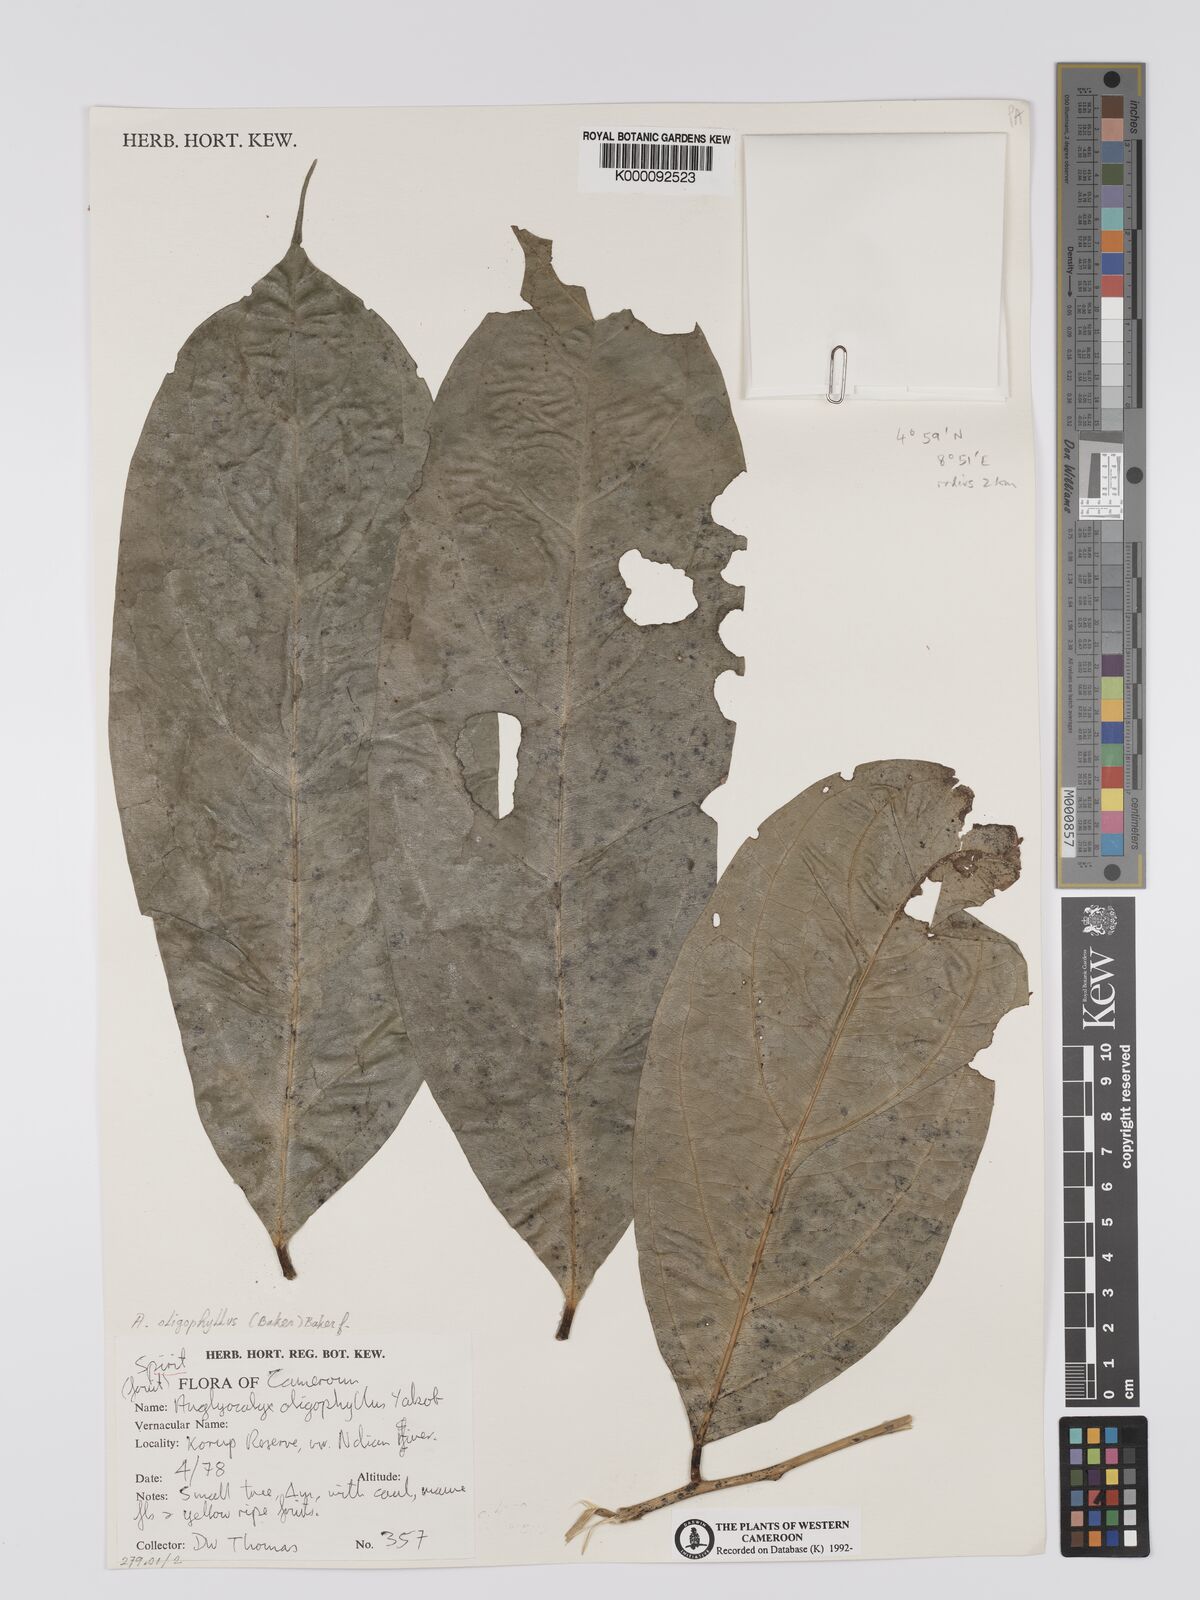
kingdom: Plantae
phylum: Tracheophyta
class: Magnoliopsida
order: Fabales
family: Fabaceae
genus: Angylocalyx
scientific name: Angylocalyx oligophyllus
